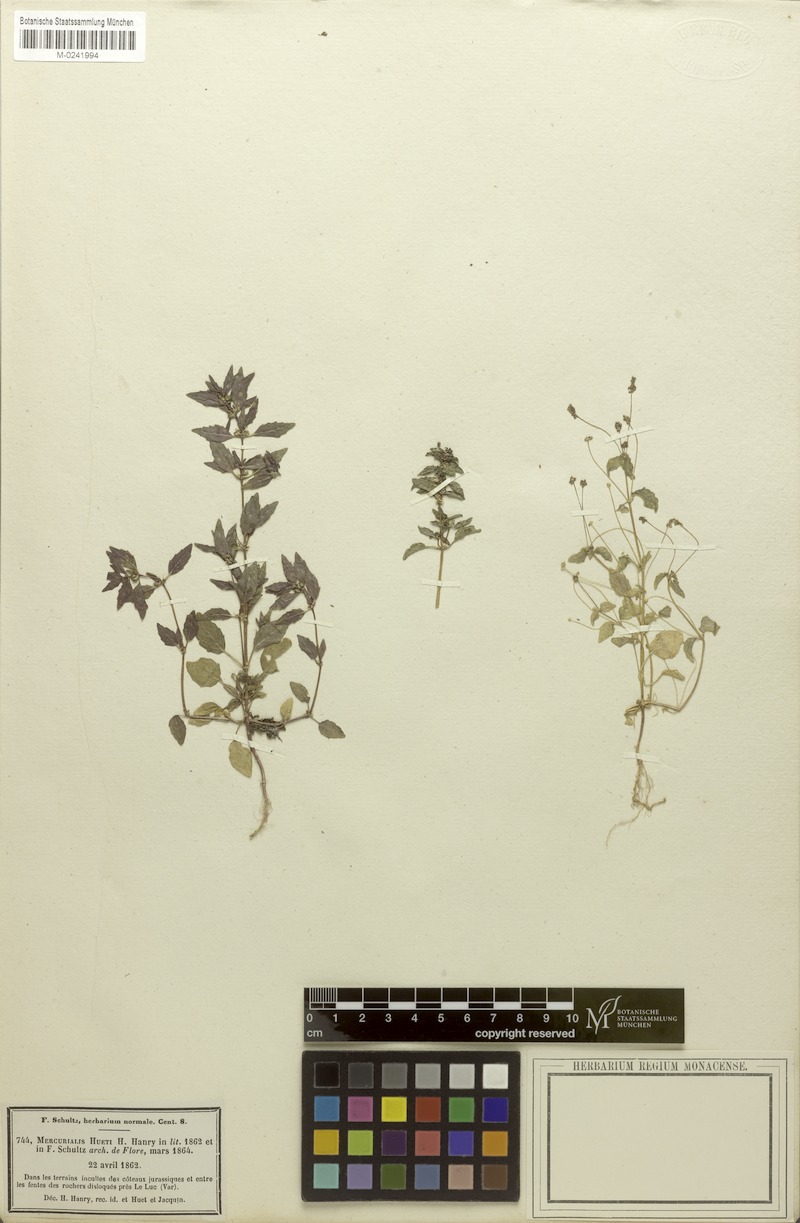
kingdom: Plantae
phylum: Tracheophyta
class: Magnoliopsida
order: Malpighiales
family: Euphorbiaceae
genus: Mercurialis
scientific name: Mercurialis huetii
